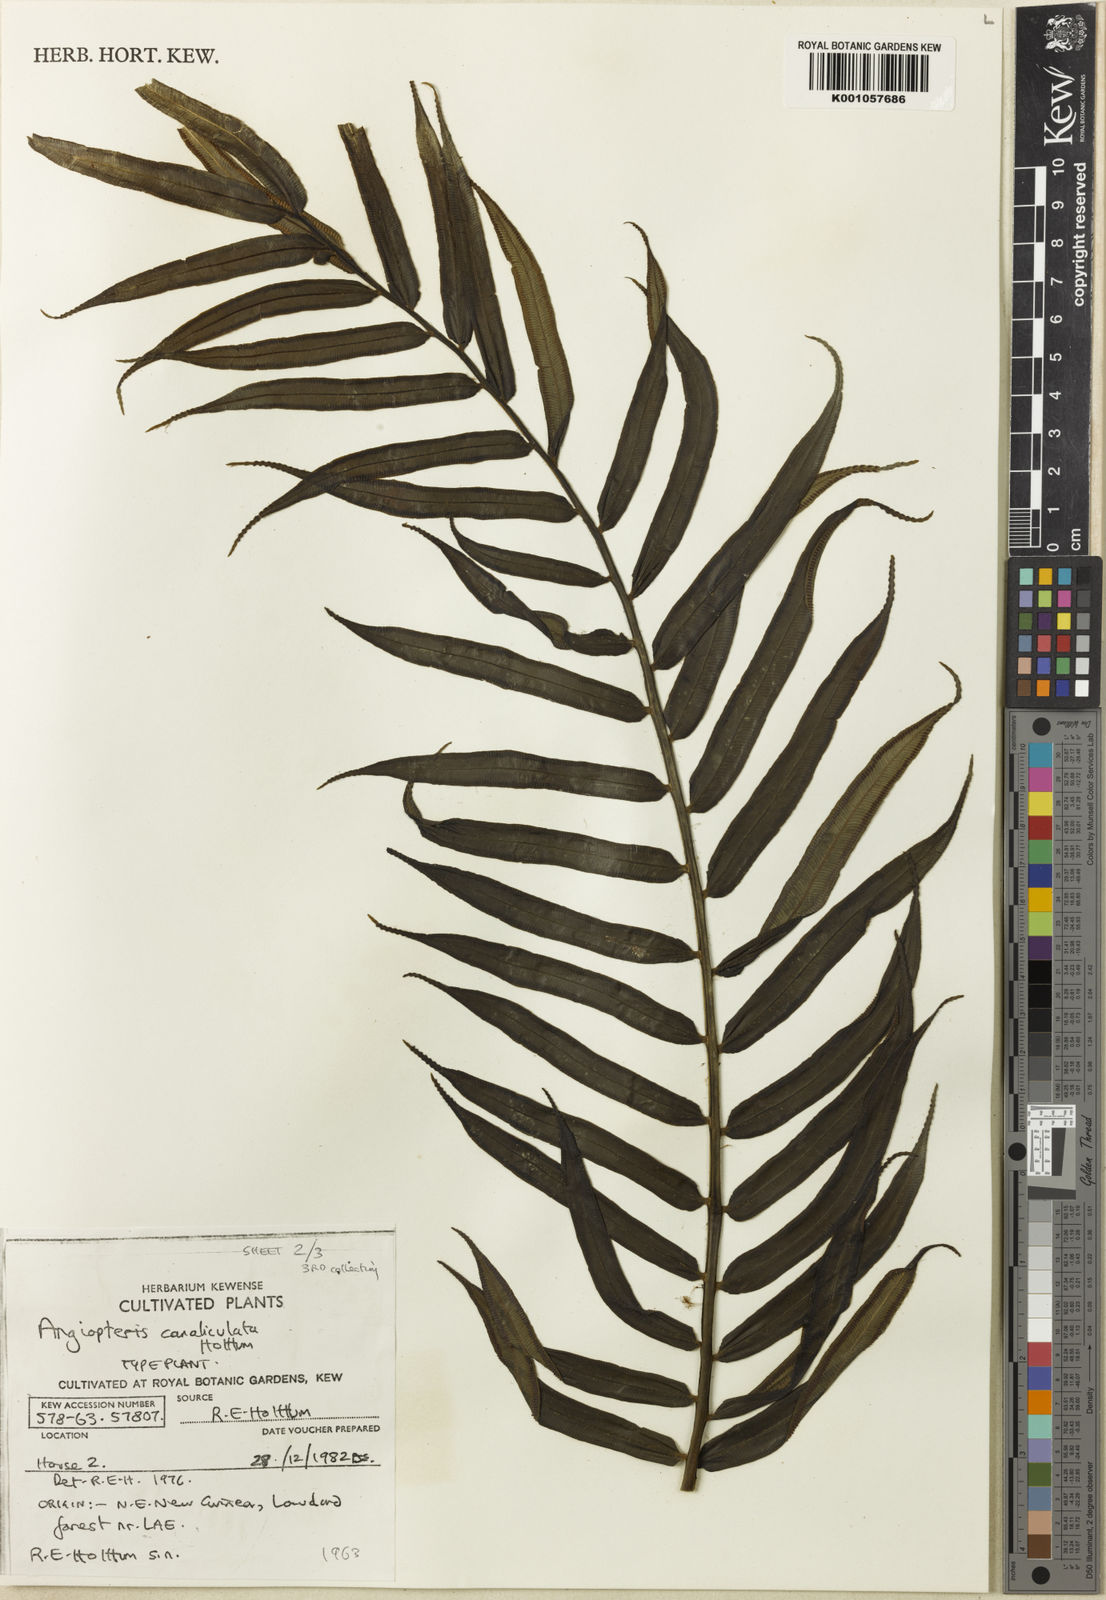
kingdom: Plantae
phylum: Tracheophyta
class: Polypodiopsida
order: Marattiales
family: Marattiaceae
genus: Angiopteris
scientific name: Angiopteris evecta
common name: Mule's-foot fern
